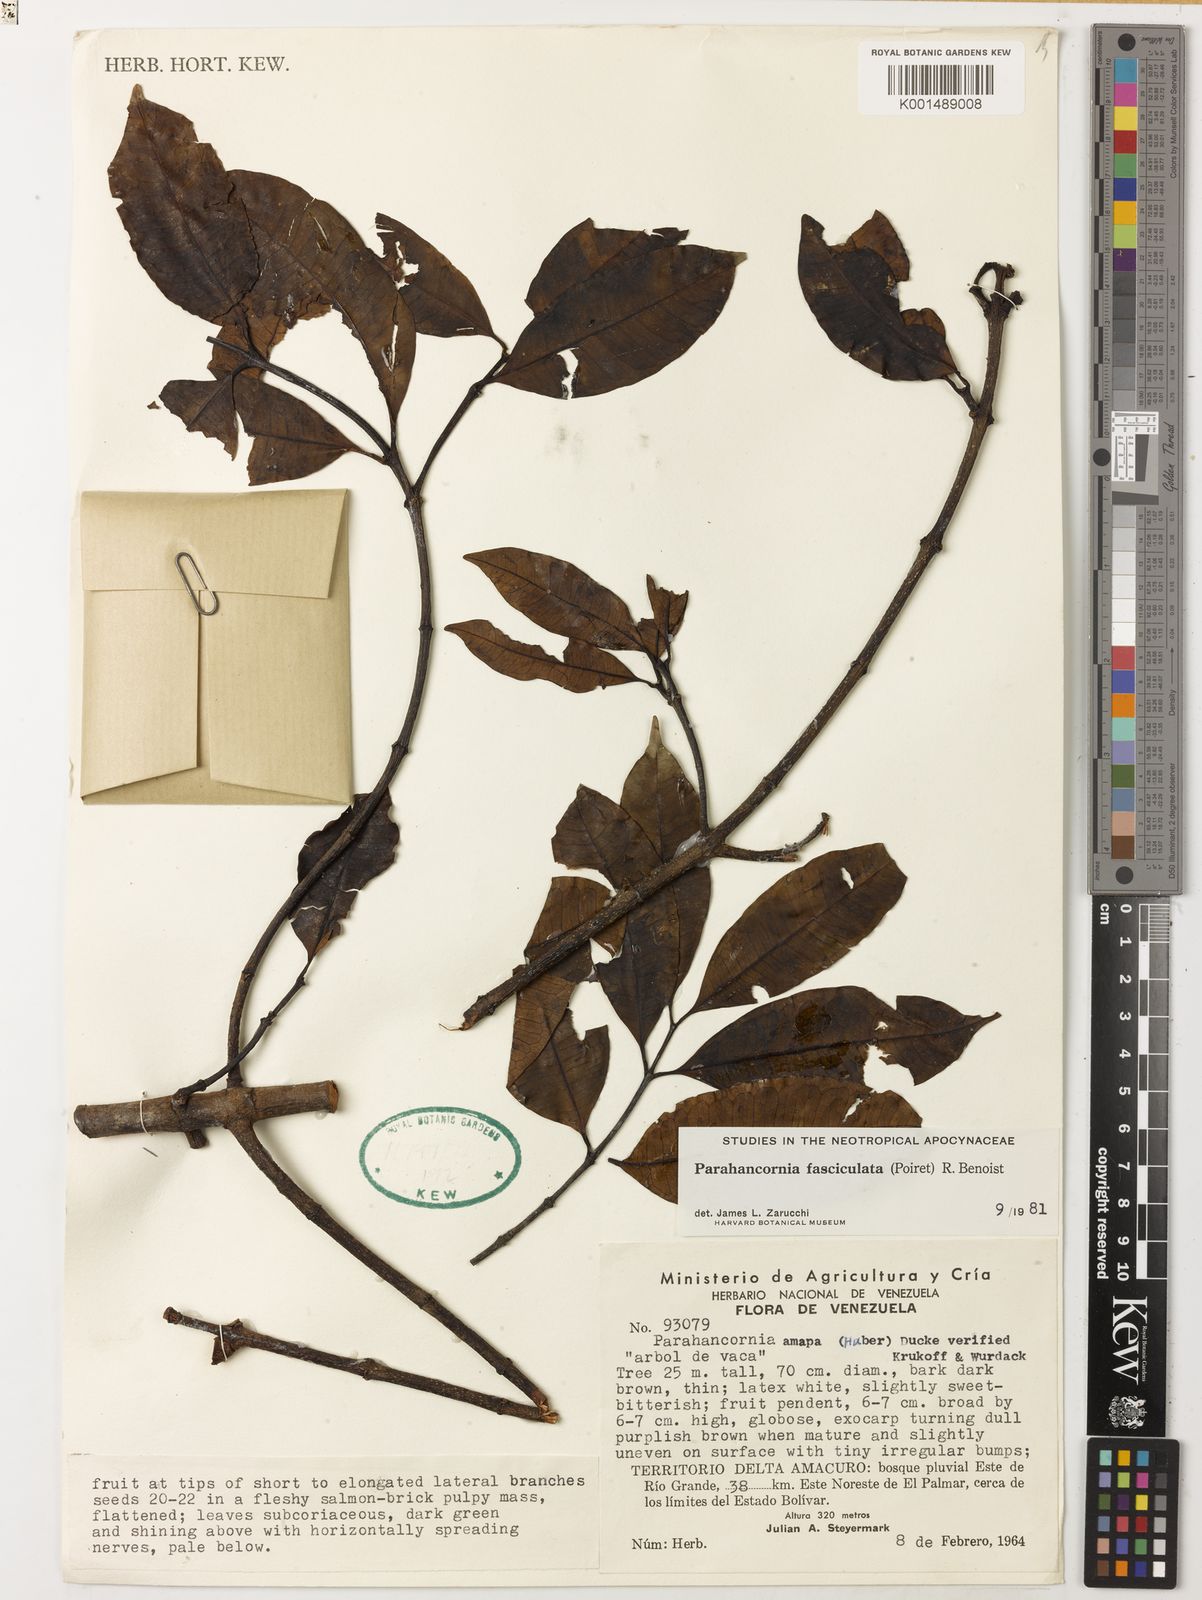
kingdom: Plantae
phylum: Tracheophyta
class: Magnoliopsida
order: Gentianales
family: Apocynaceae
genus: Parahancornia
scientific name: Parahancornia fasciculata
